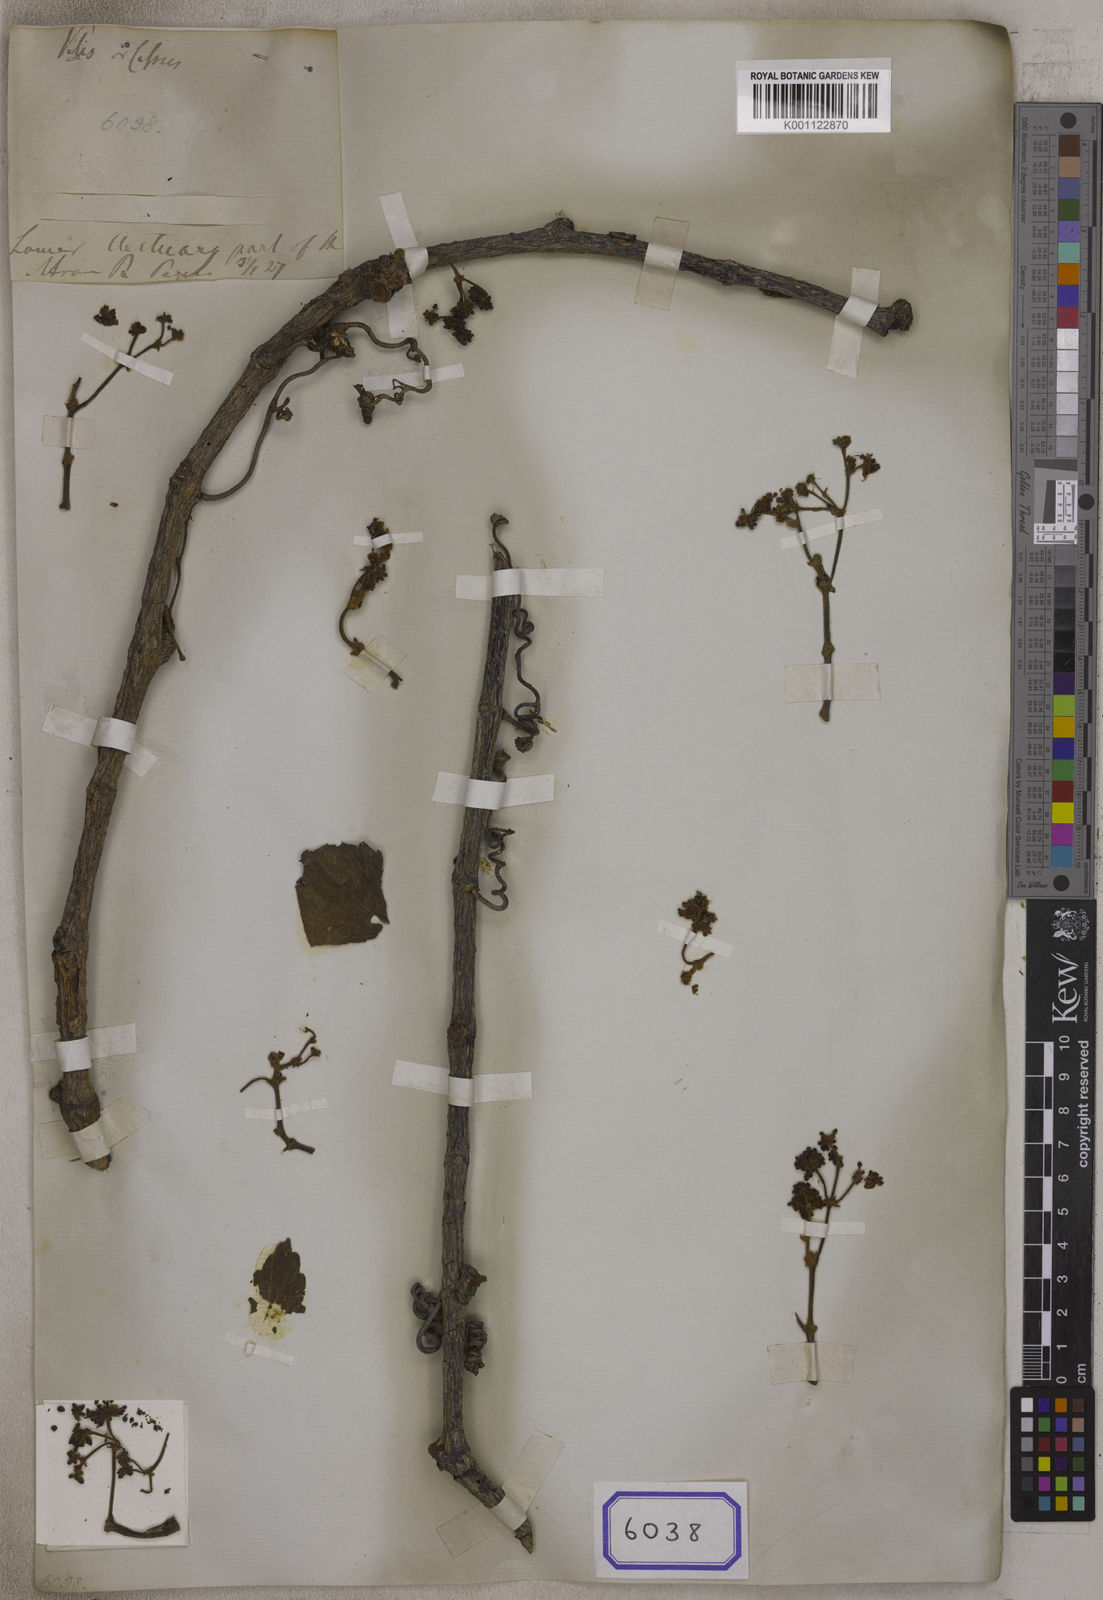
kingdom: Plantae
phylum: Tracheophyta
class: Magnoliopsida
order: Vitales
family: Vitaceae
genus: Cissus
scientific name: Cissus repanda
